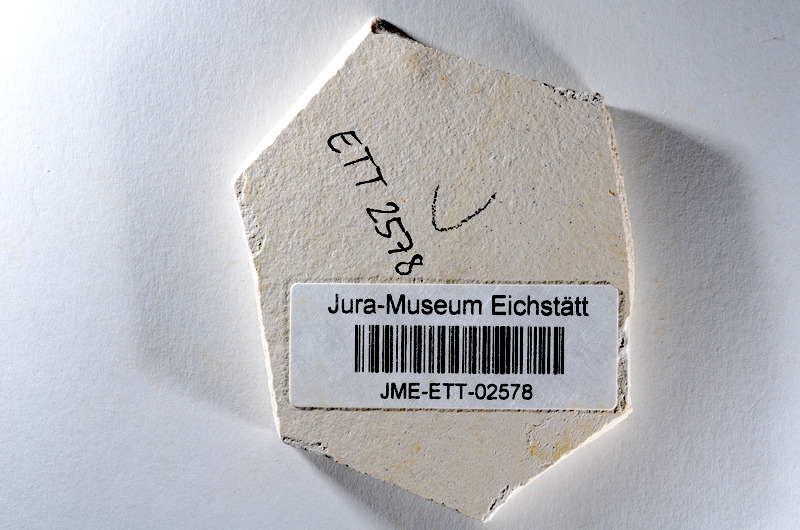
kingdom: Animalia
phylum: Chordata
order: Salmoniformes
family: Orthogonikleithridae
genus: Orthogonikleithrus
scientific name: Orthogonikleithrus hoelli
